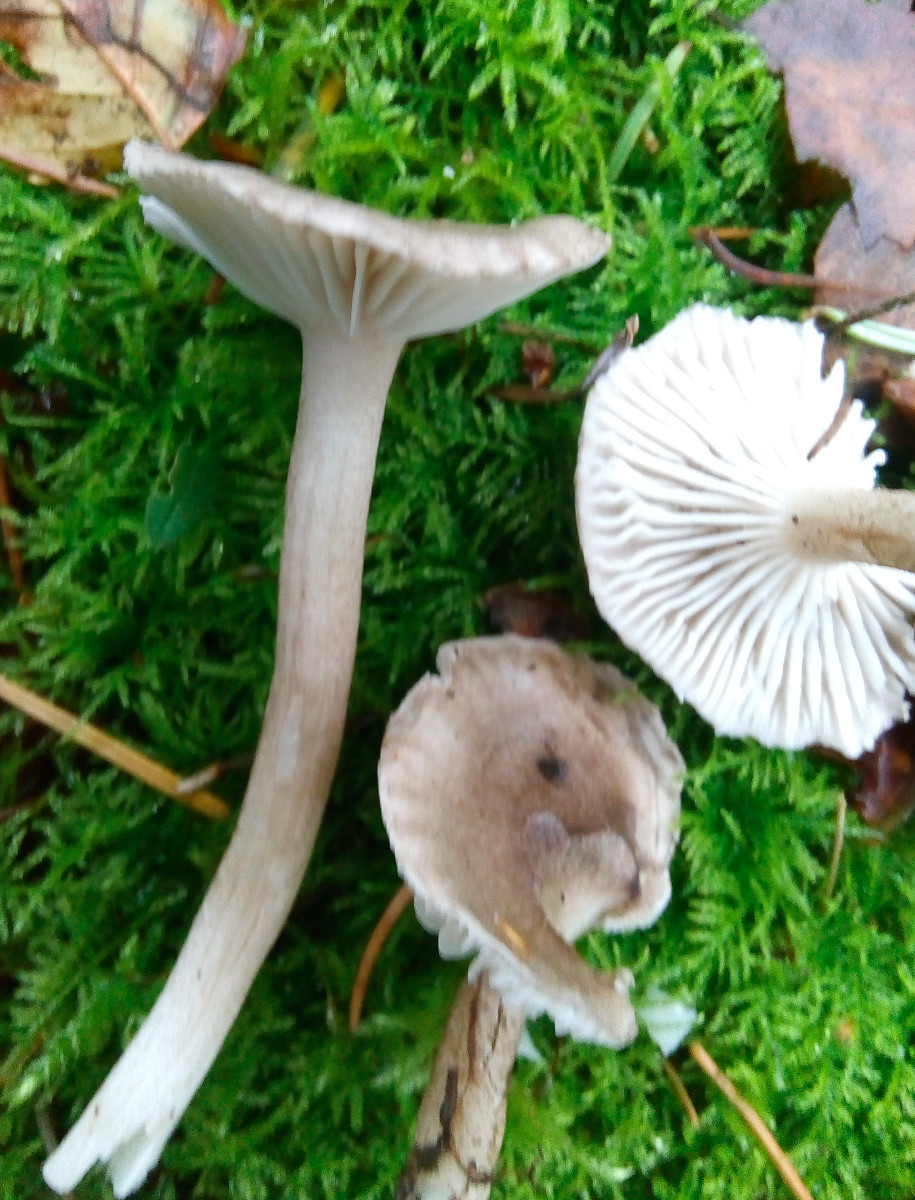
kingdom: Fungi
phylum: Basidiomycota
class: Agaricomycetes
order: Agaricales
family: Hygrophoraceae
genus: Hygrophorus
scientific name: Hygrophorus pustulatus
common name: mørkprikket sneglehat
